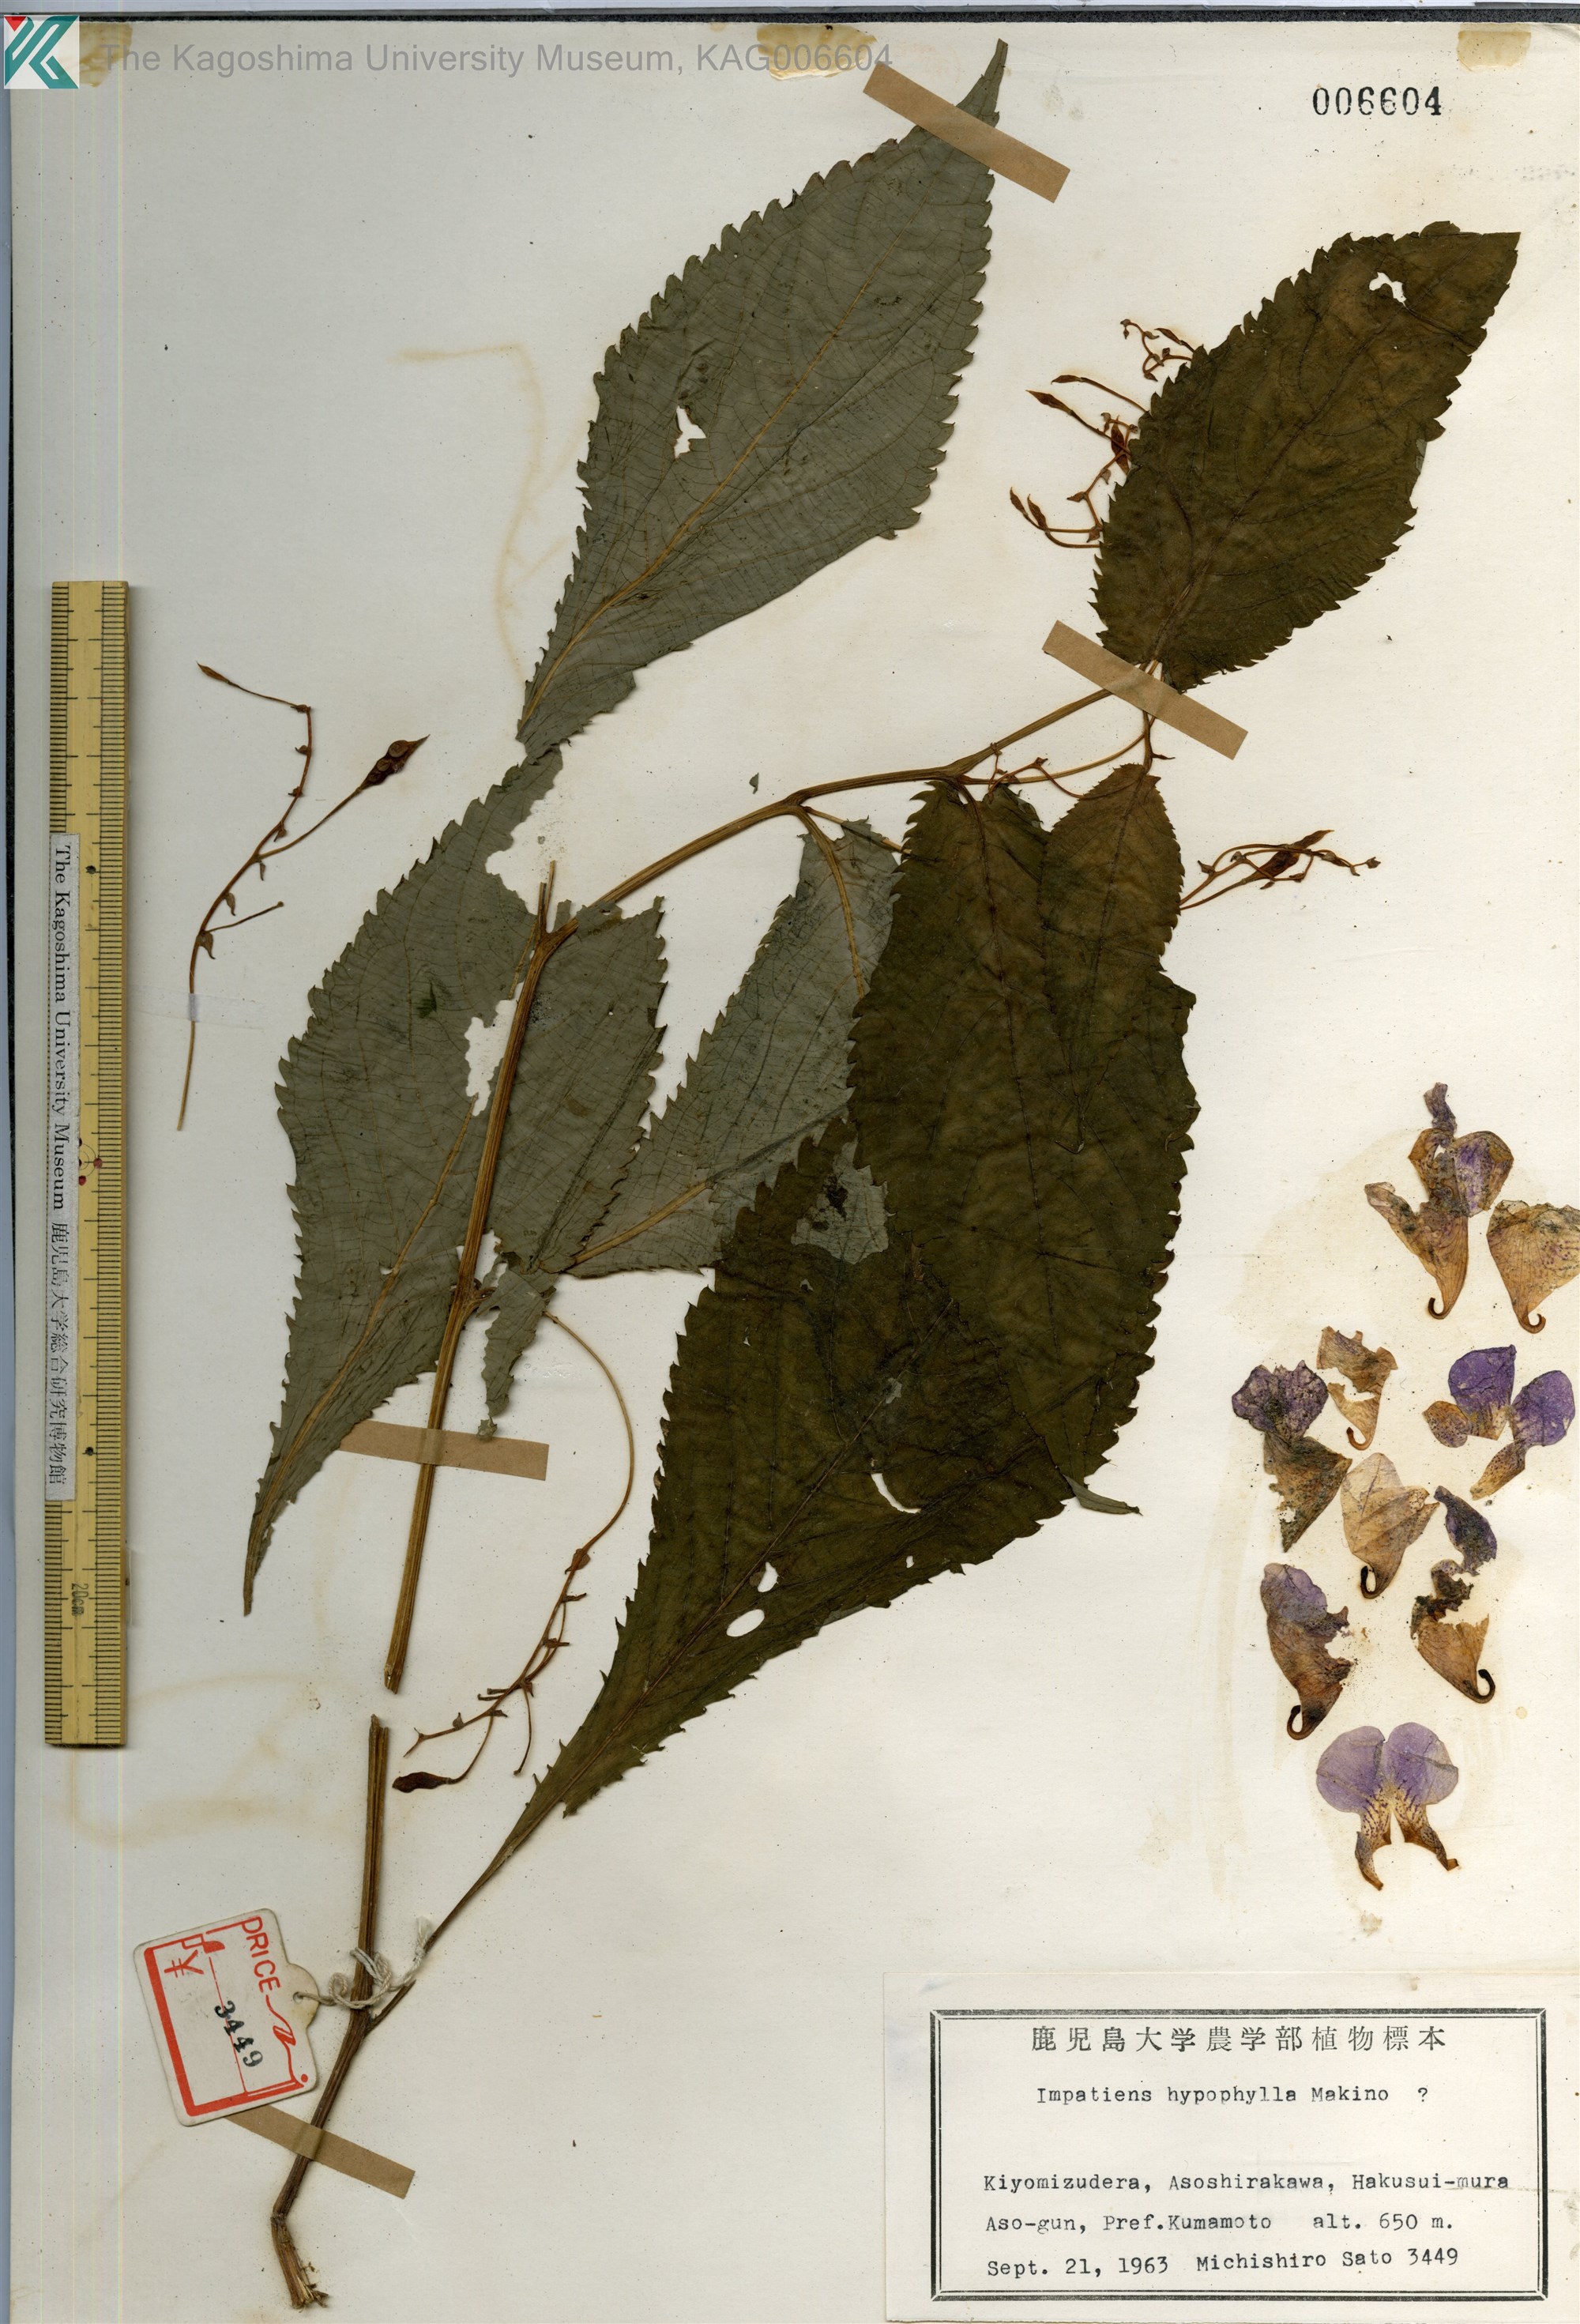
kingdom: Plantae
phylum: Tracheophyta
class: Magnoliopsida
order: Ericales
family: Balsaminaceae
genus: Impatiens
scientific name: Impatiens textorii
